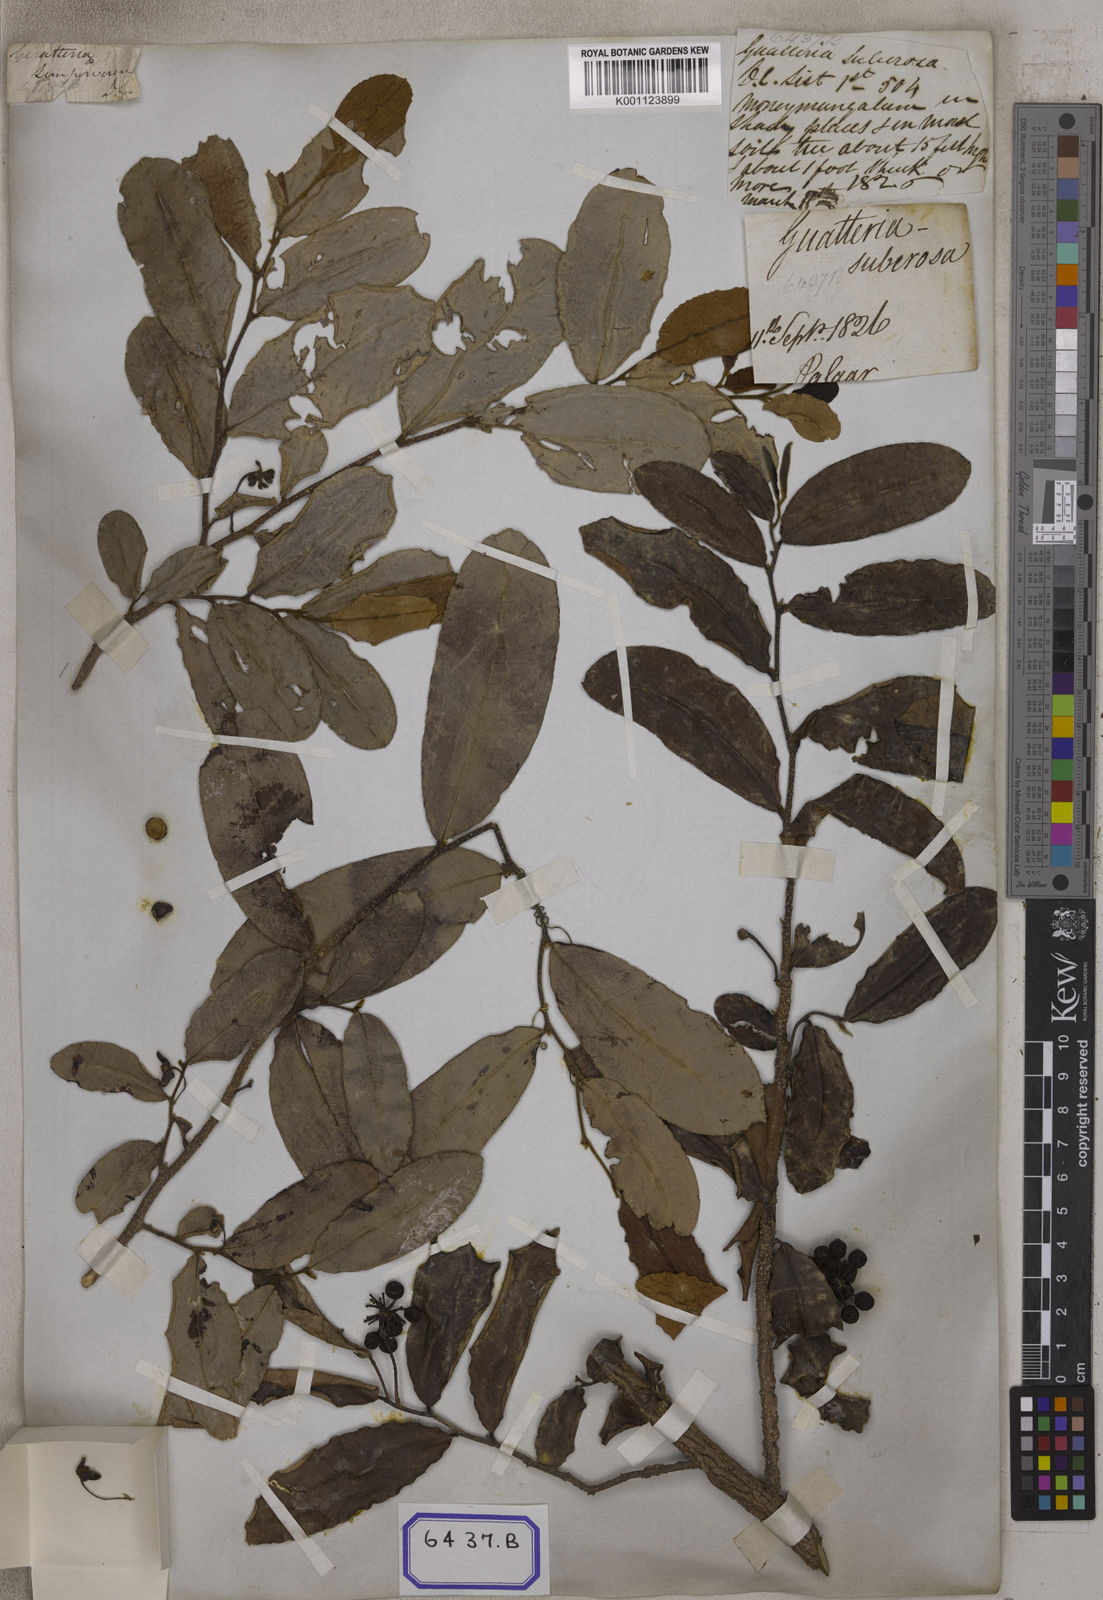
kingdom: Plantae
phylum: Tracheophyta
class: Magnoliopsida
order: Magnoliales
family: Annonaceae
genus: Polyalthia
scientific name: Polyalthia suberosa
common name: Polyalthia plant
